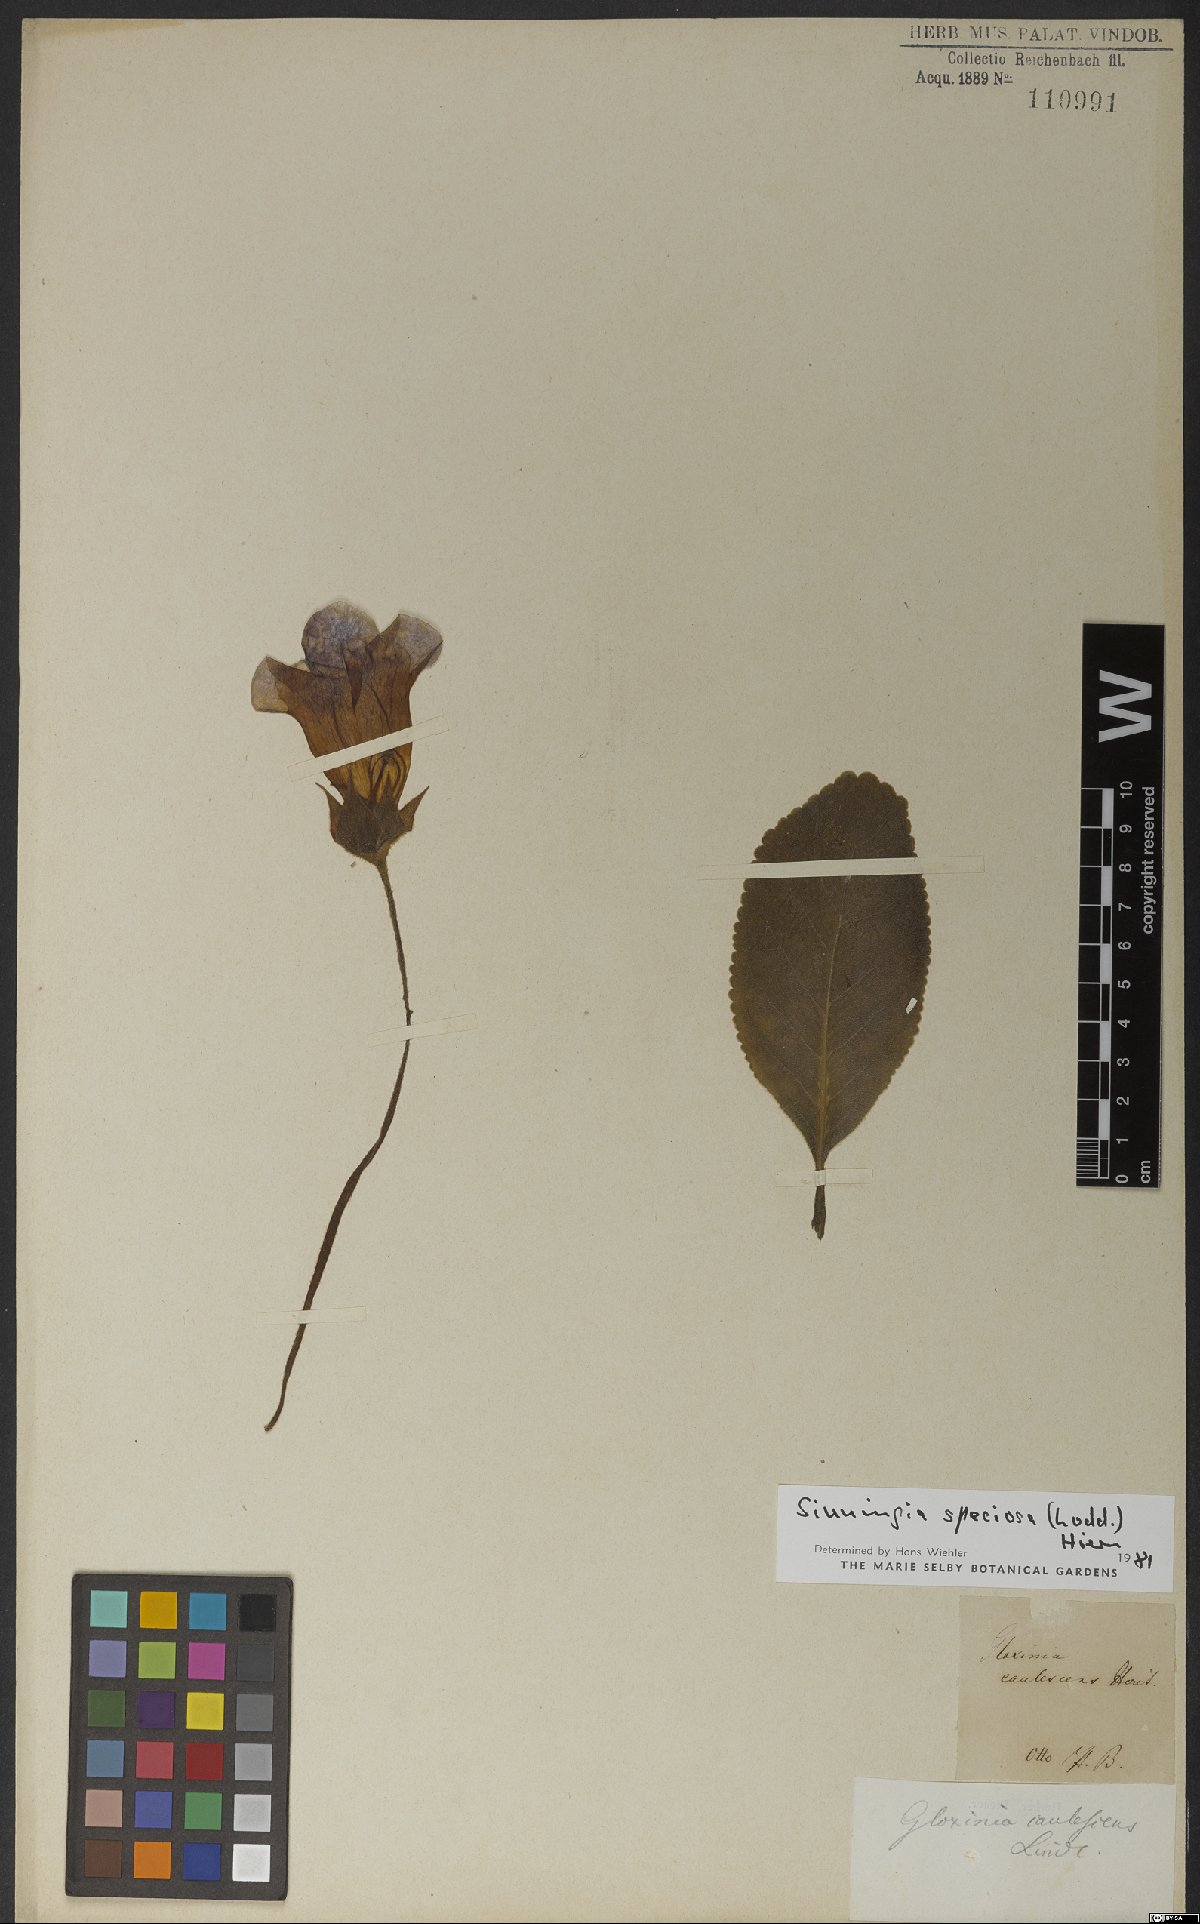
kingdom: Plantae
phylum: Tracheophyta
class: Magnoliopsida
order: Lamiales
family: Gesneriaceae
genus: Sinningia
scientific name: Sinningia speciosa
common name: Brazilian gloxinia
